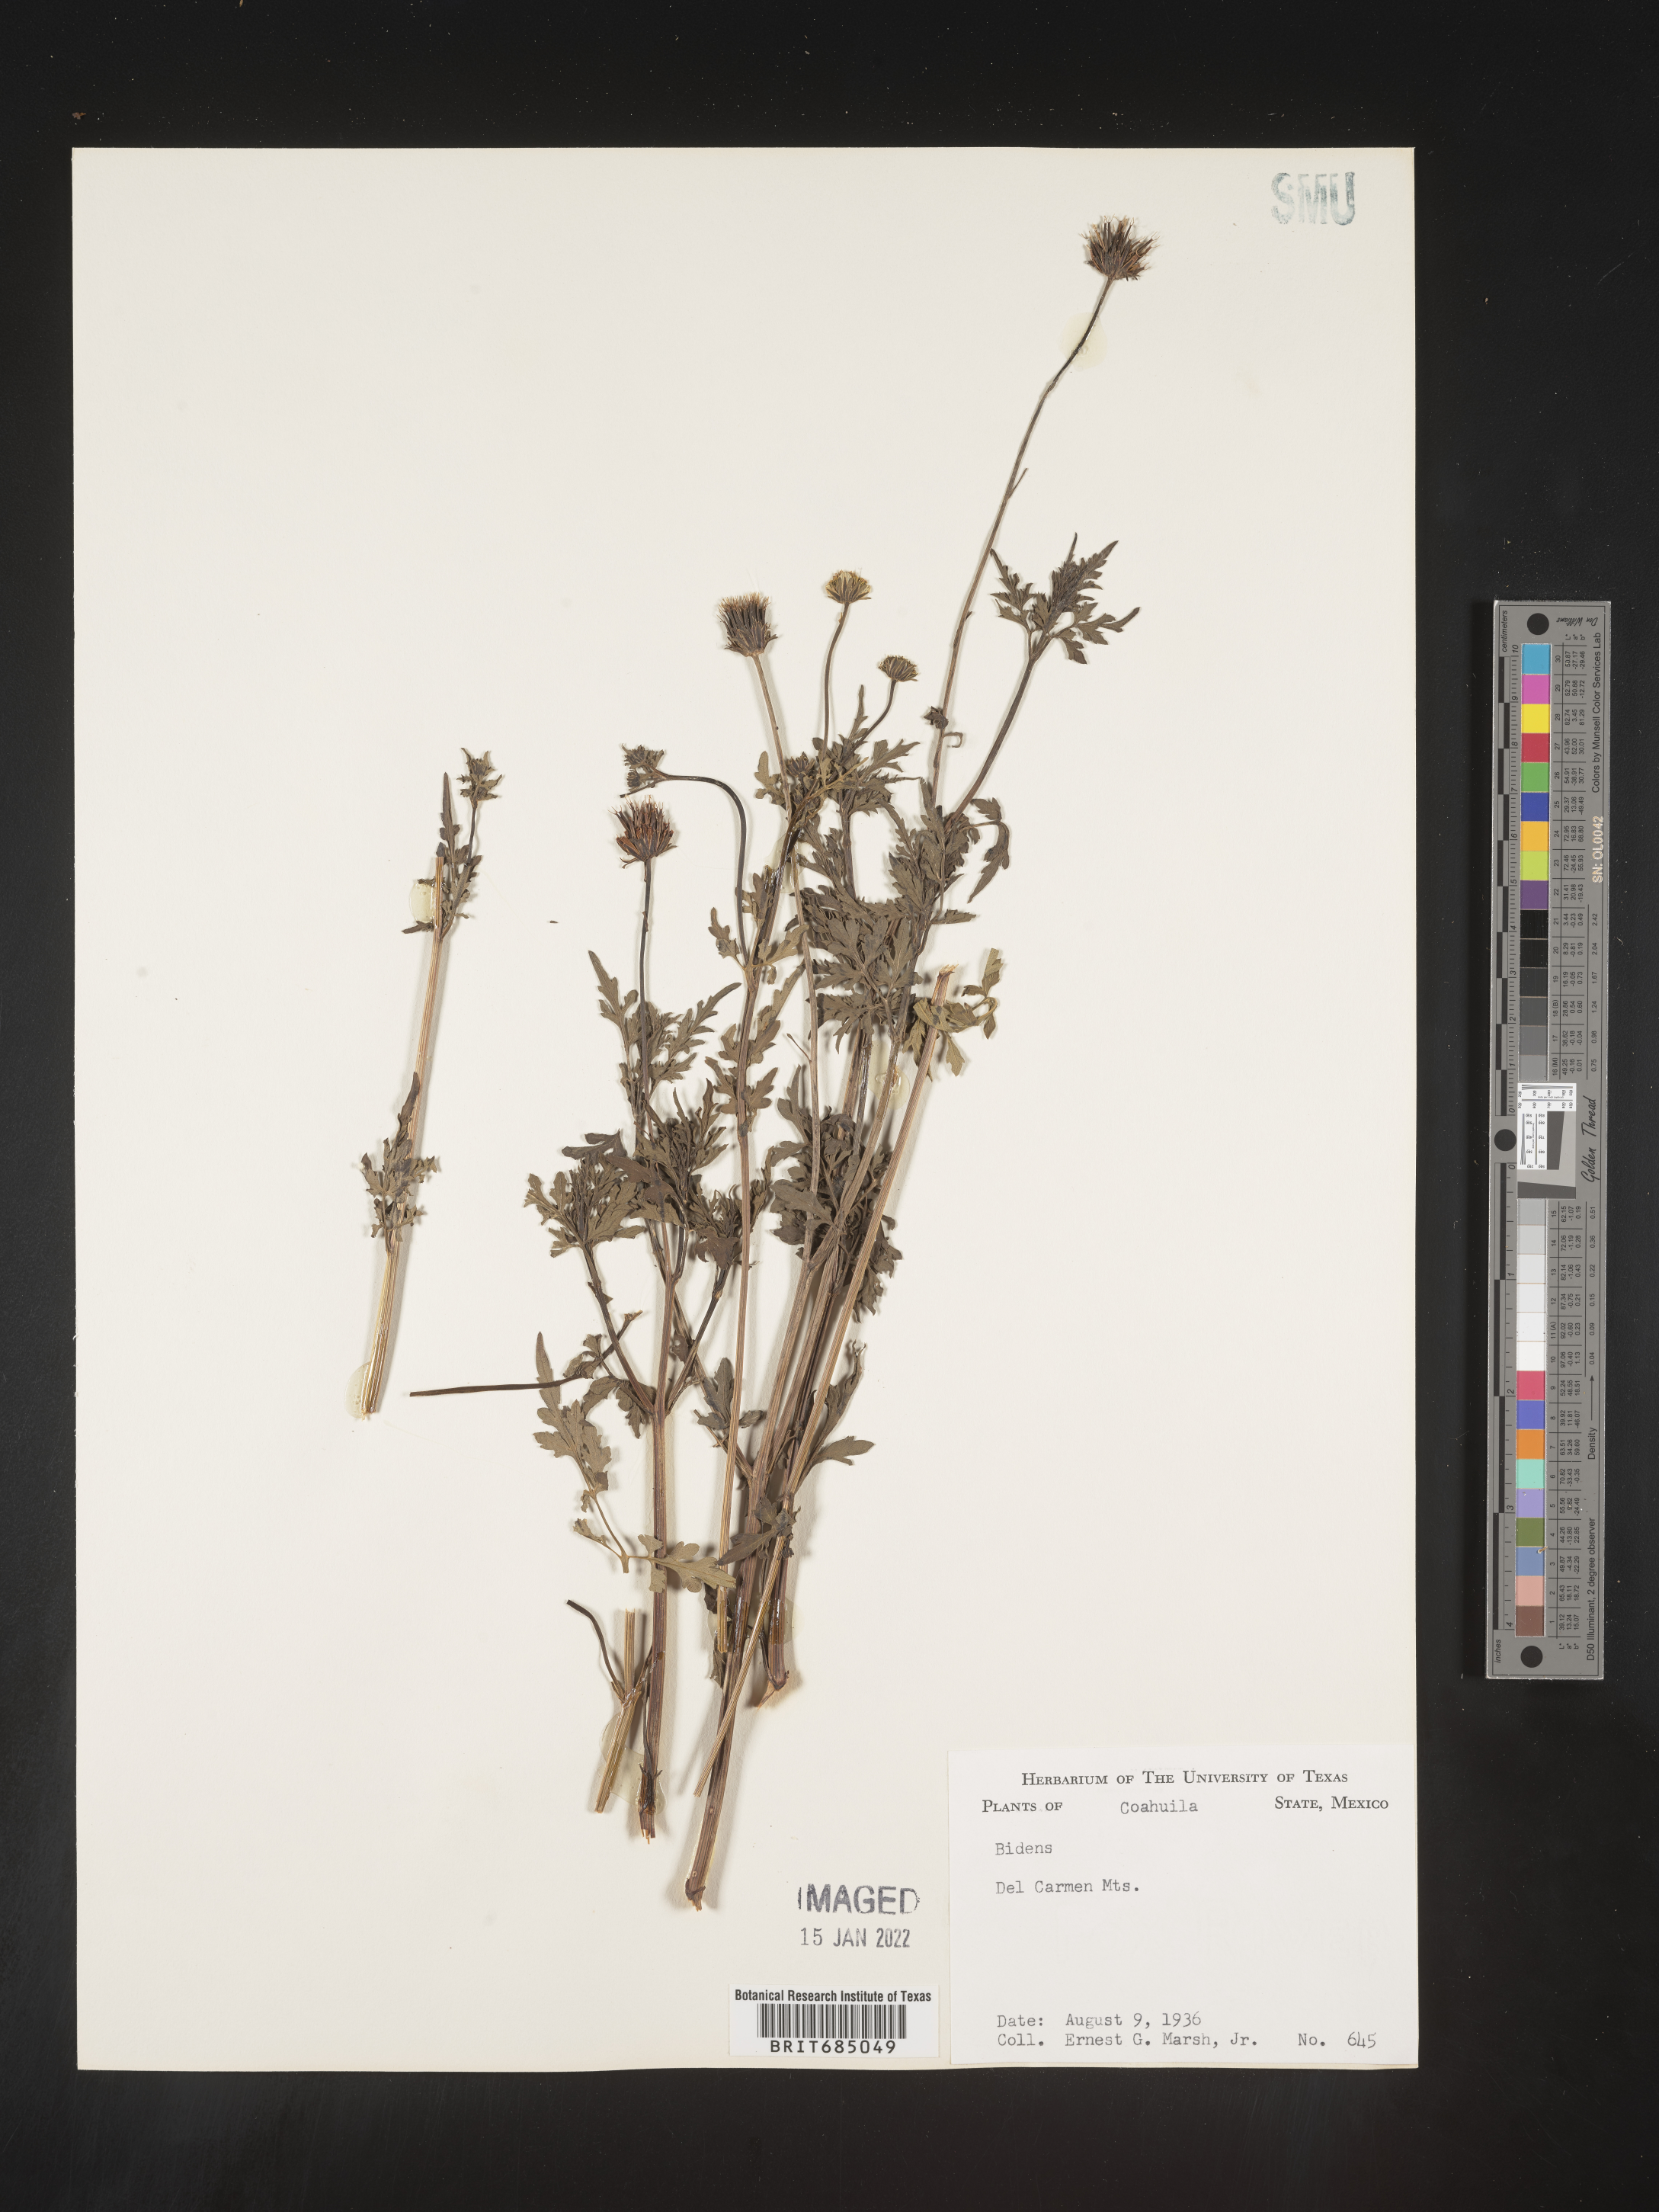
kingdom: Plantae
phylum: Tracheophyta
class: Magnoliopsida
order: Asterales
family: Asteraceae
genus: Bidens
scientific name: Bidens
